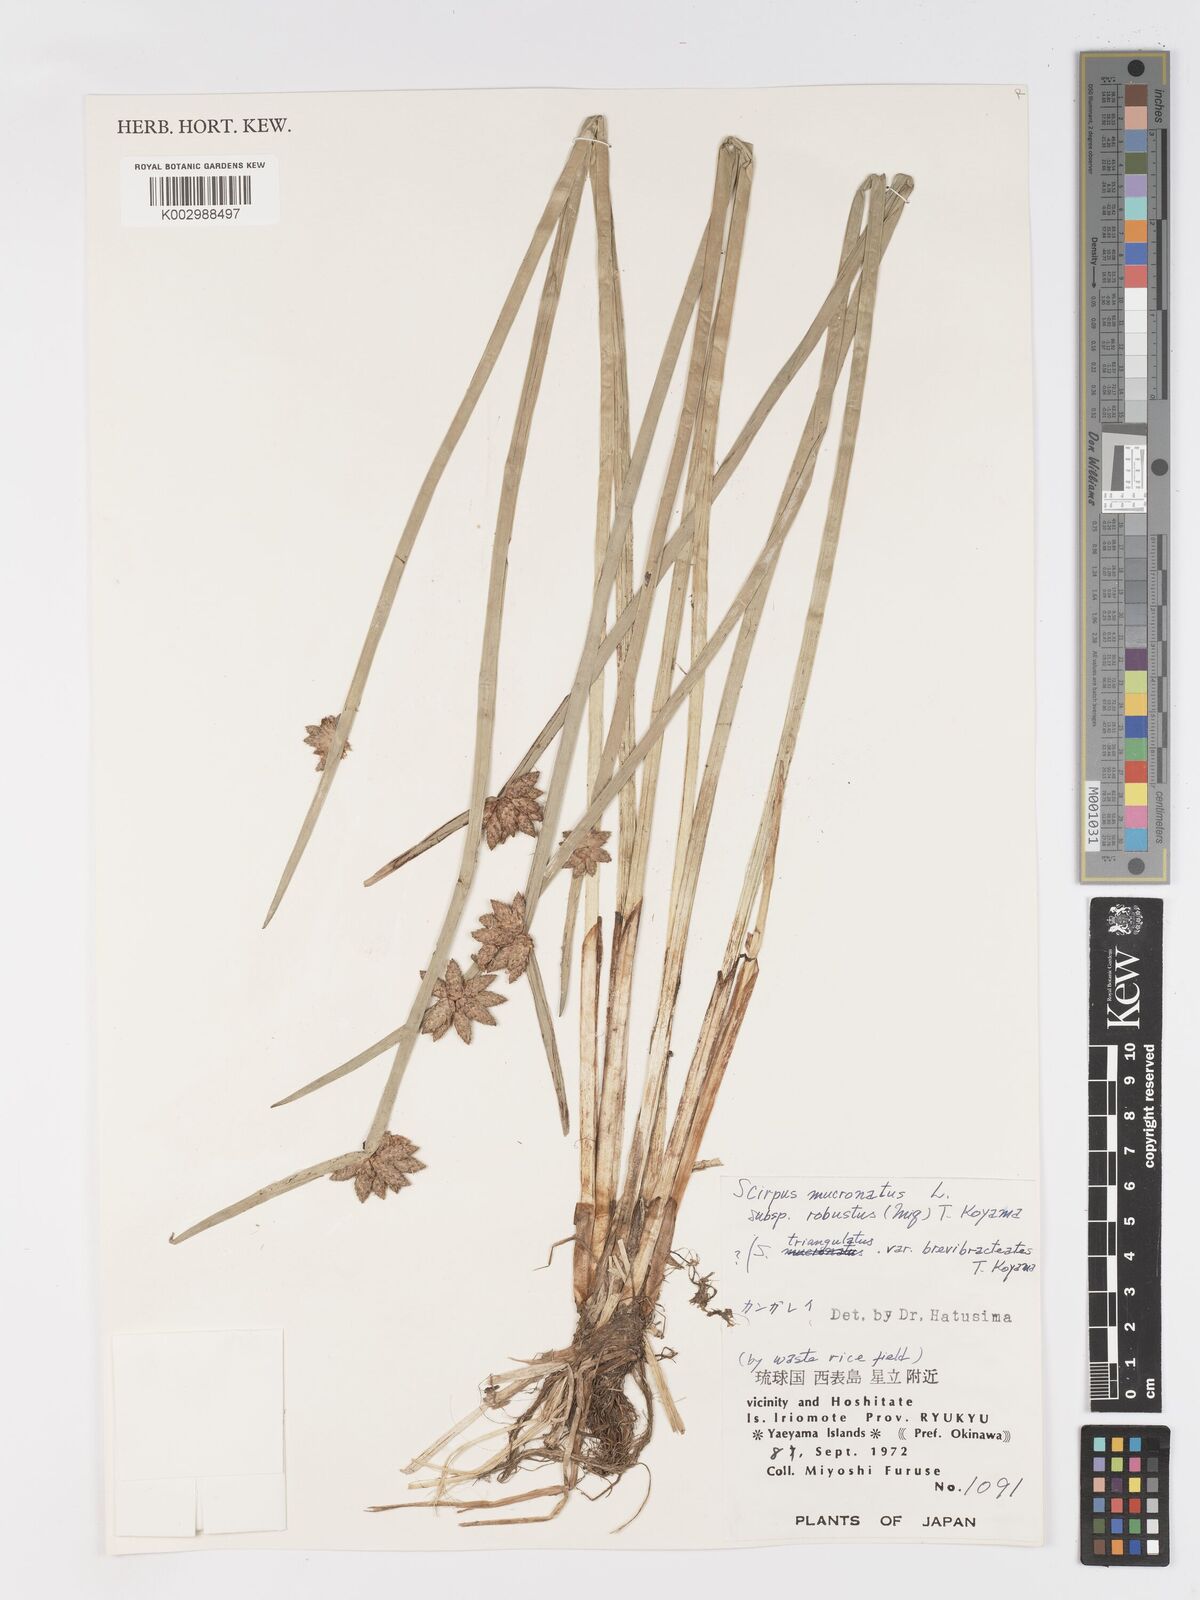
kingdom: Plantae
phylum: Tracheophyta
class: Liliopsida
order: Poales
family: Cyperaceae
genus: Schoenoplectiella
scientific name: Schoenoplectiella triangulata
